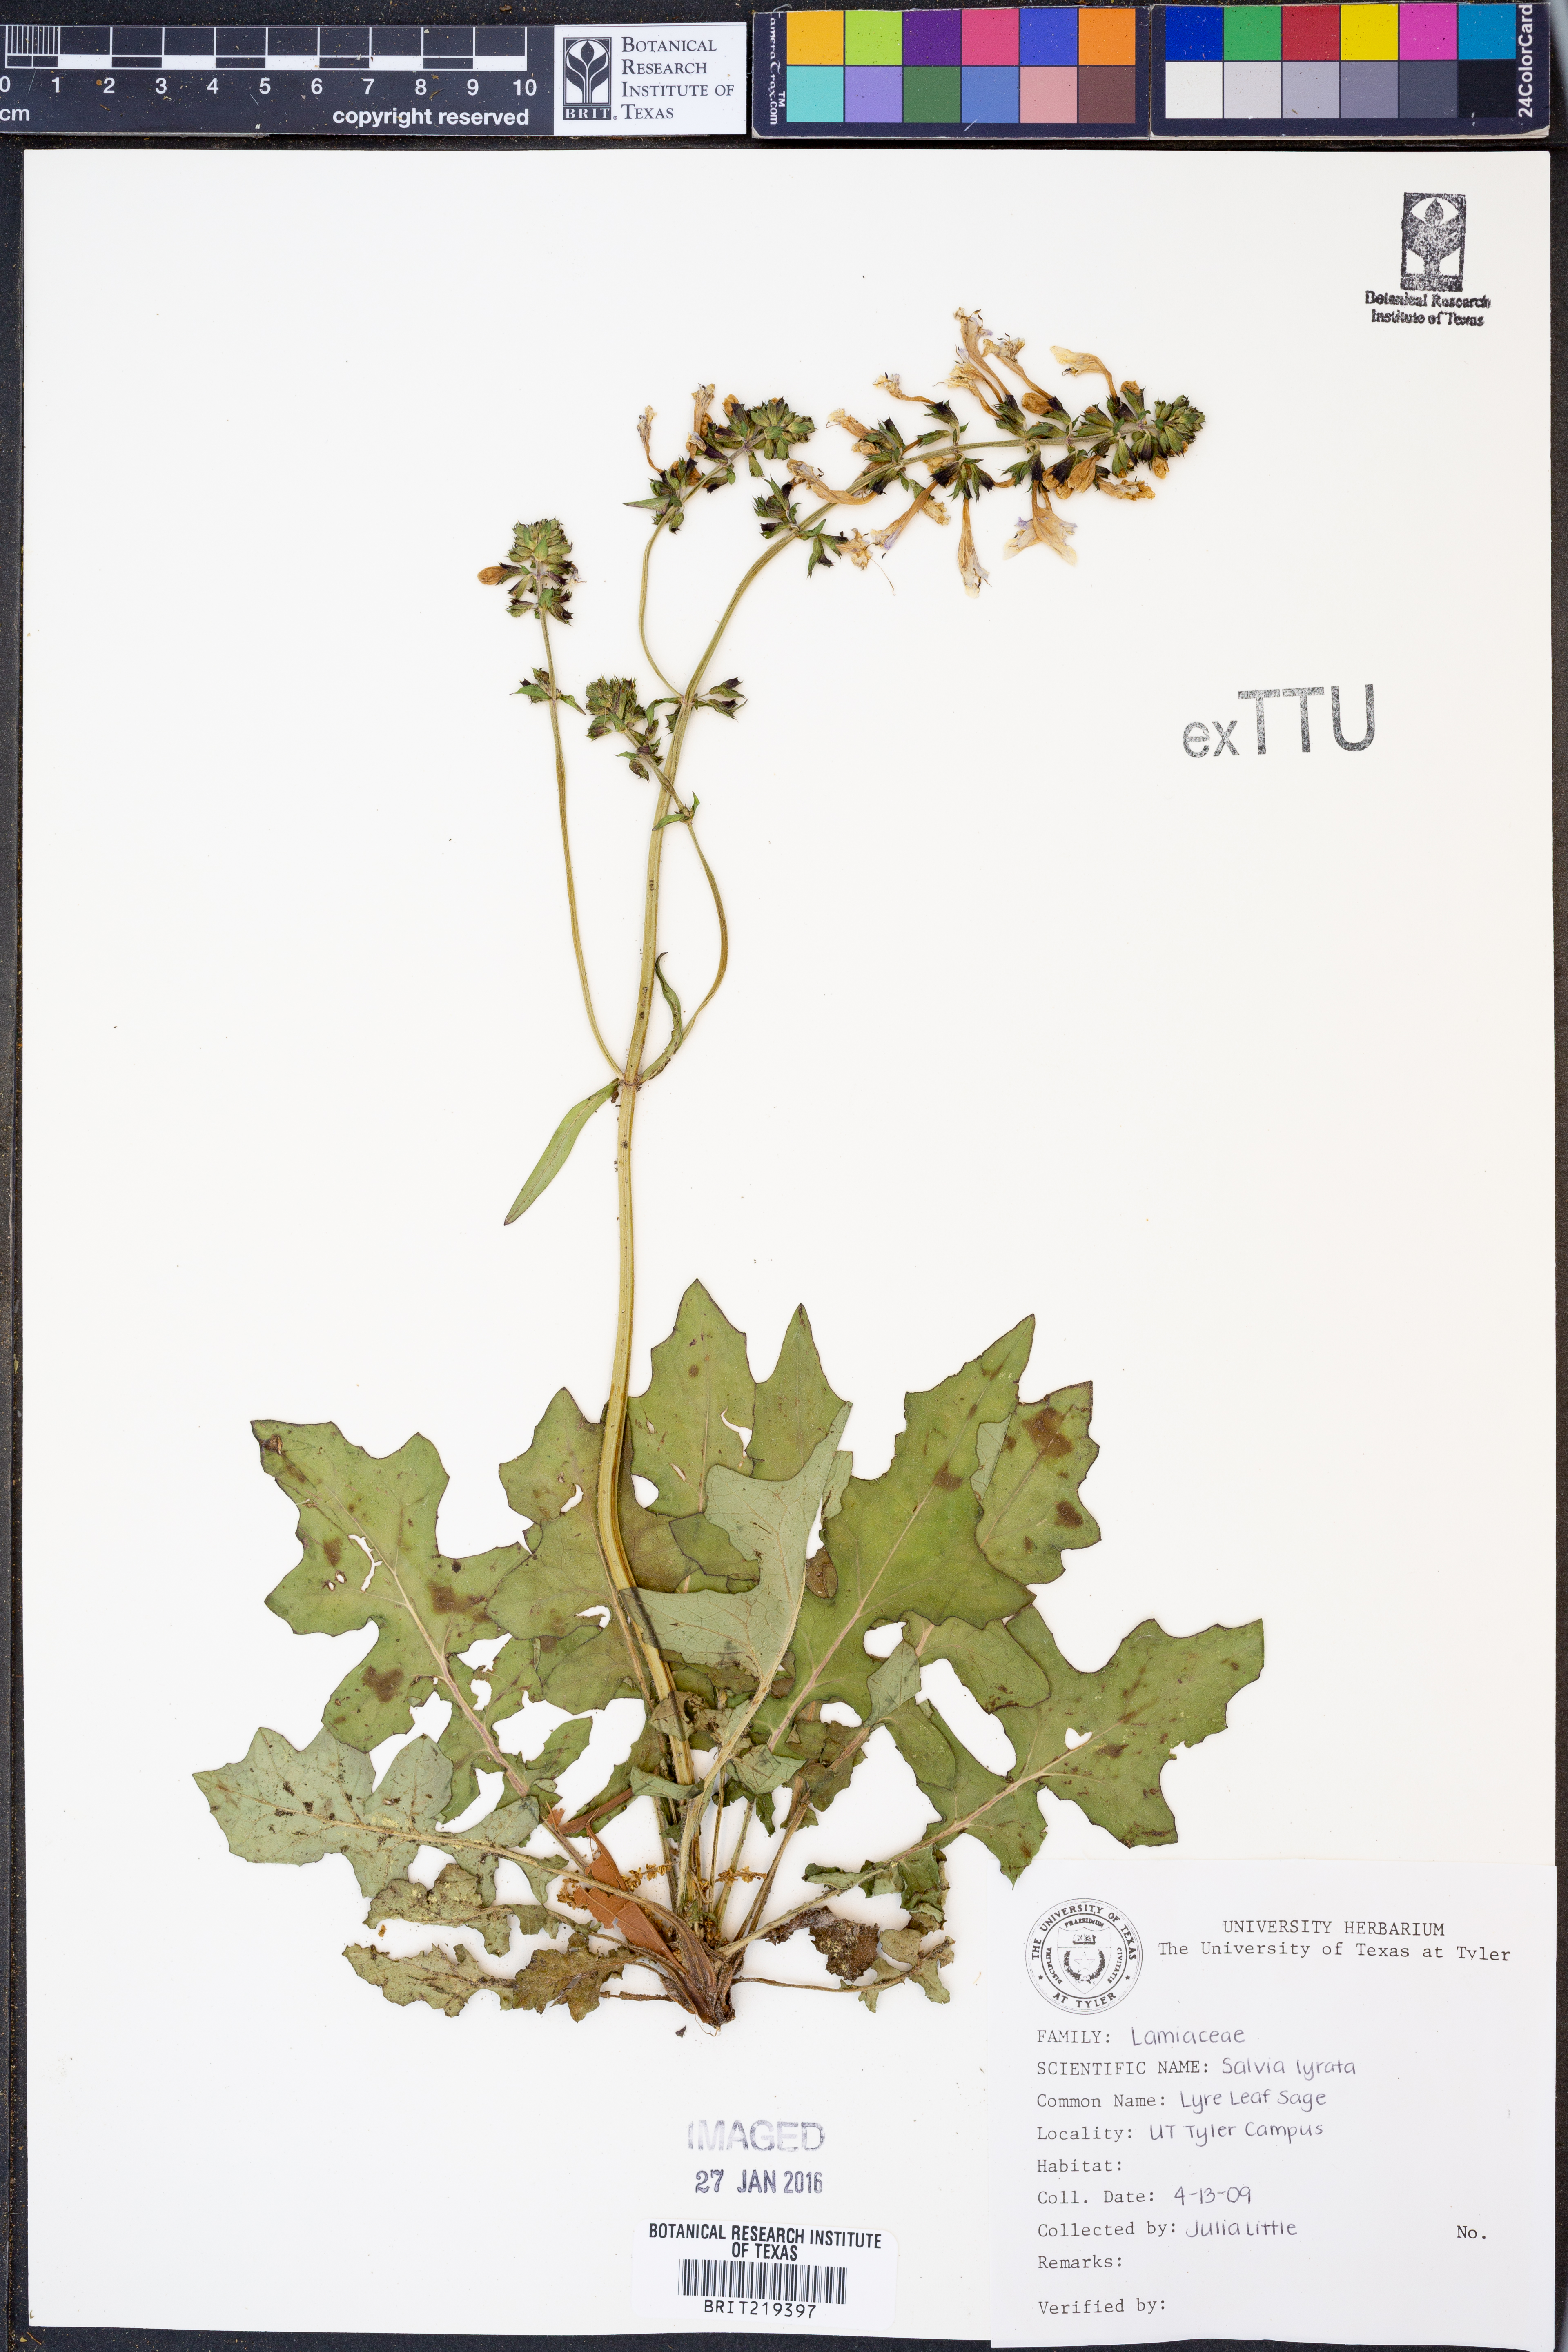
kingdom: Plantae
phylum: Tracheophyta
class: Magnoliopsida
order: Lamiales
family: Lamiaceae
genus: Salvia
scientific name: Salvia lyrata
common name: Cancerweed
